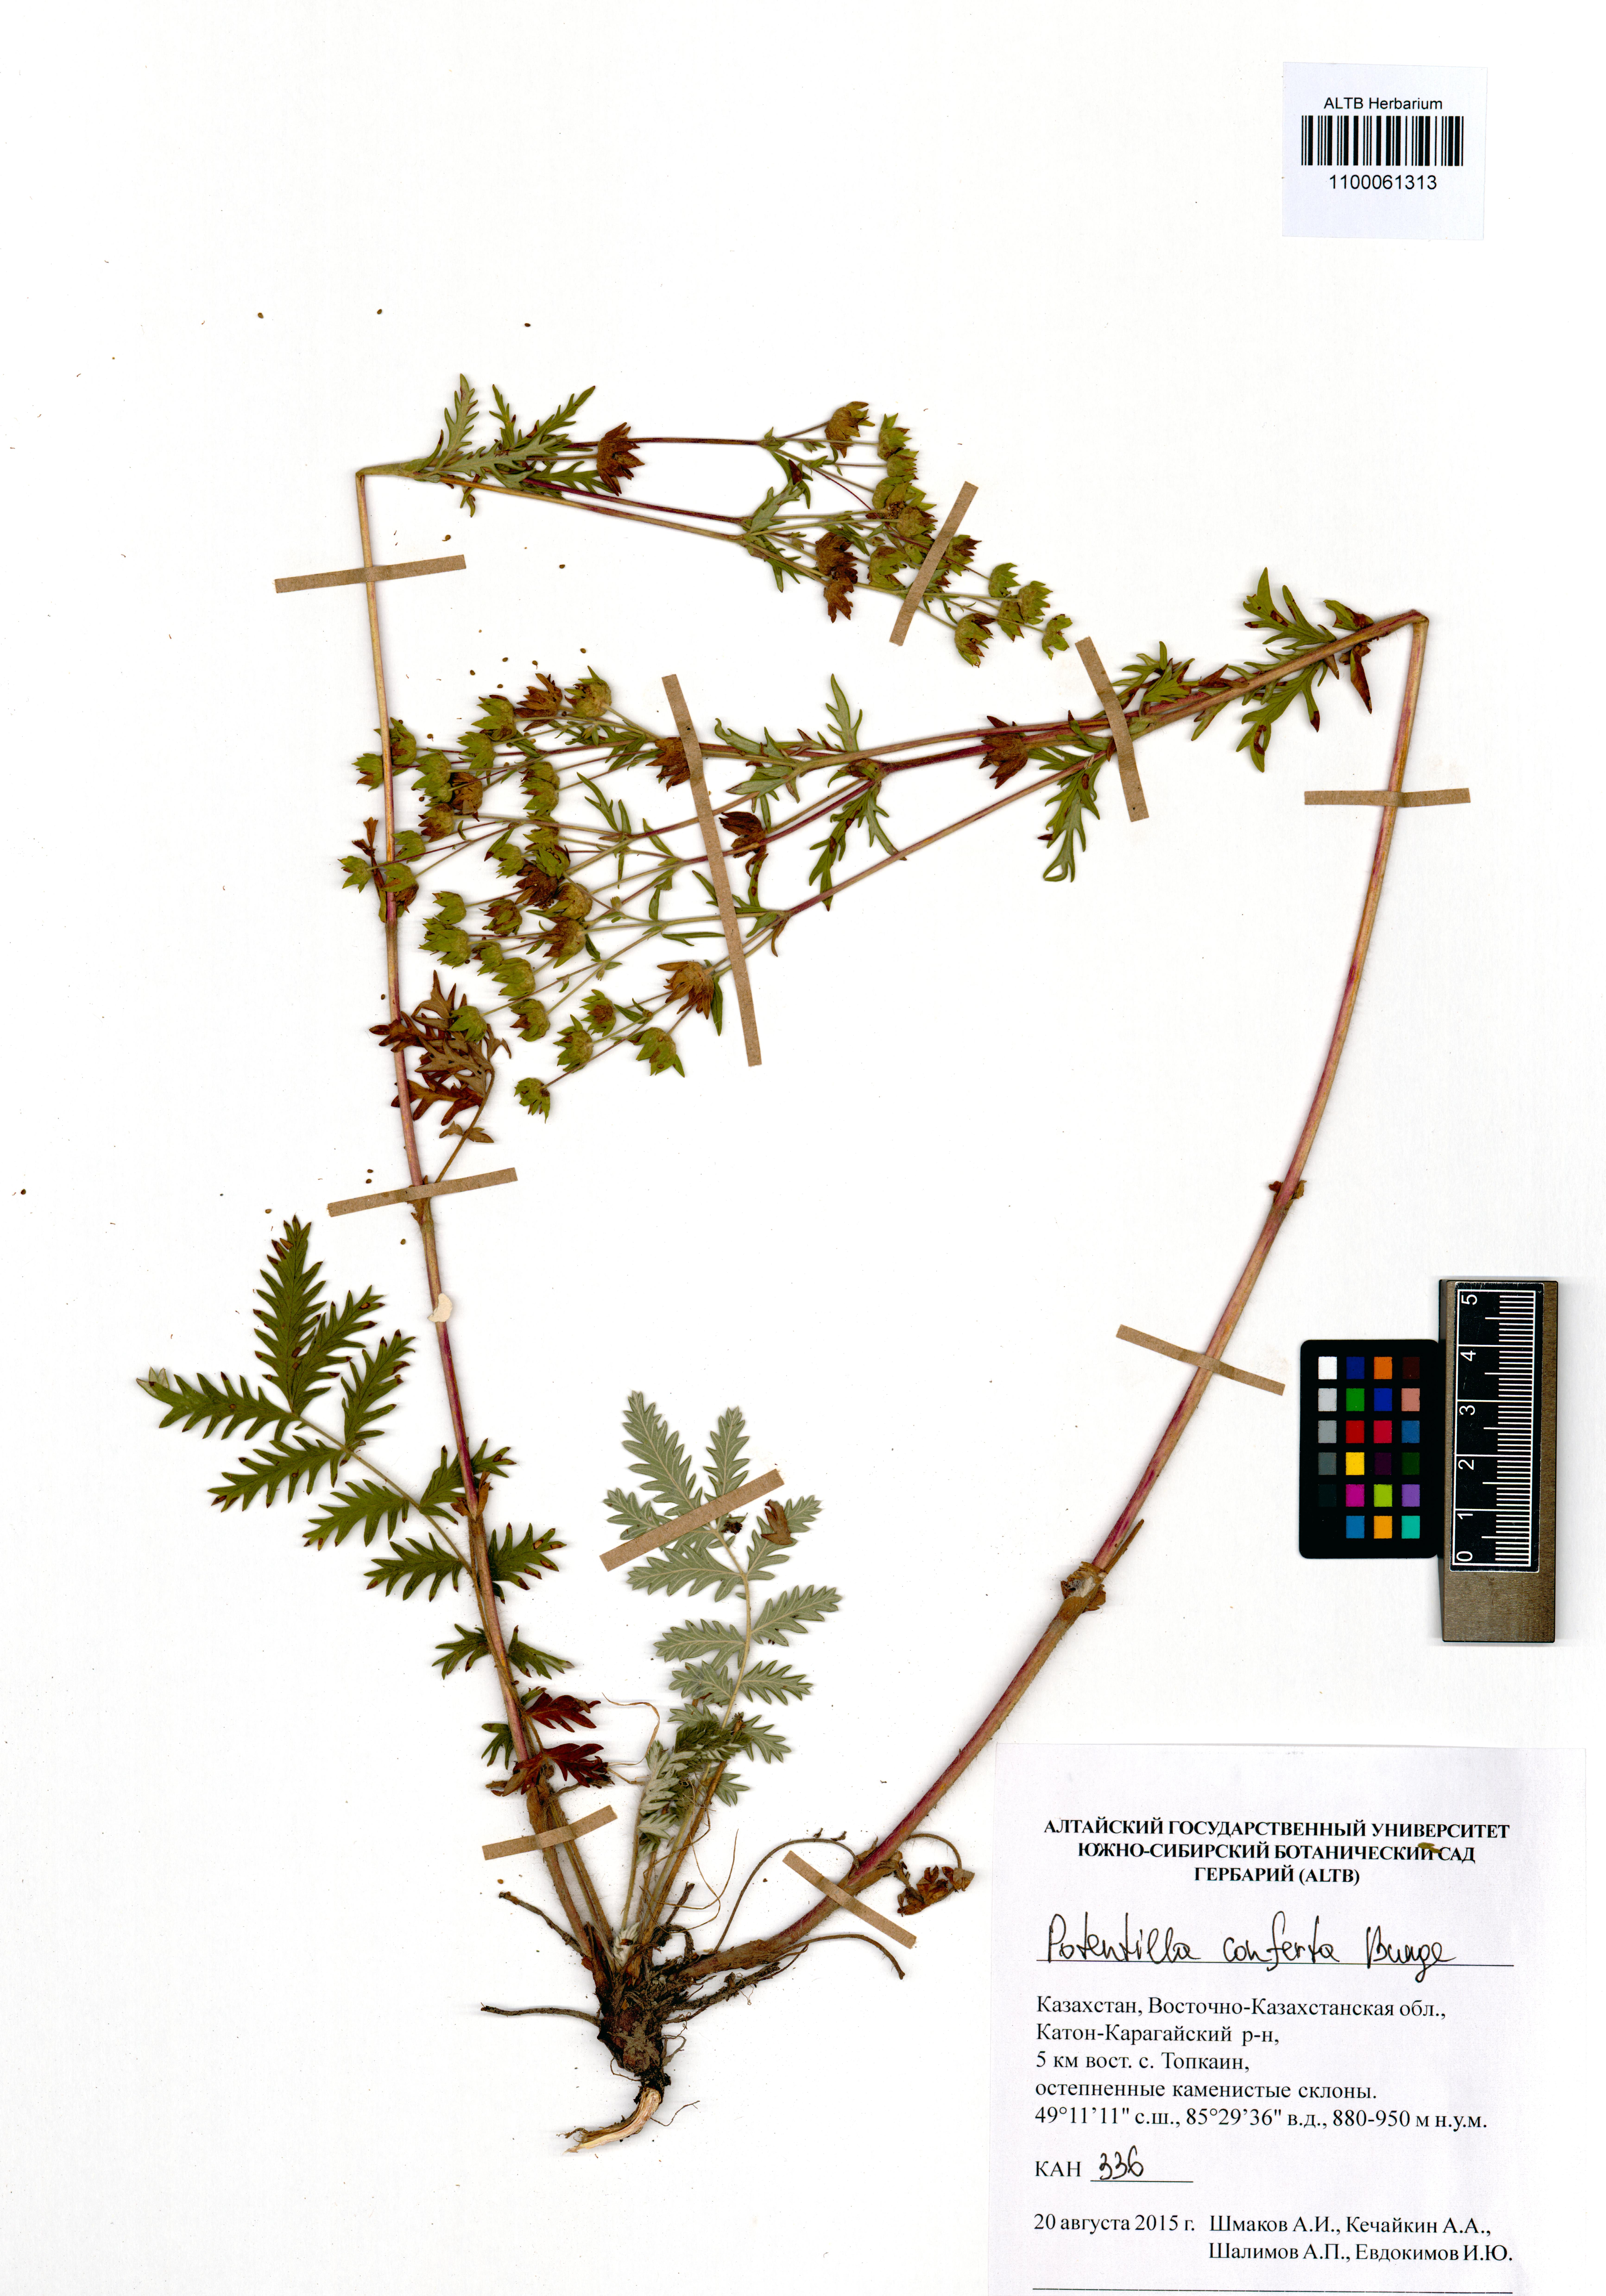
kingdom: Plantae
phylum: Tracheophyta
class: Magnoliopsida
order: Rosales
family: Rosaceae
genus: Potentilla
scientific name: Potentilla conferta
